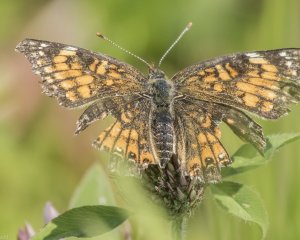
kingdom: Animalia
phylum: Arthropoda
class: Insecta
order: Lepidoptera
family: Nymphalidae
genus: Chlosyne
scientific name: Chlosyne harrisii
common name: Harris's Checkerspot
